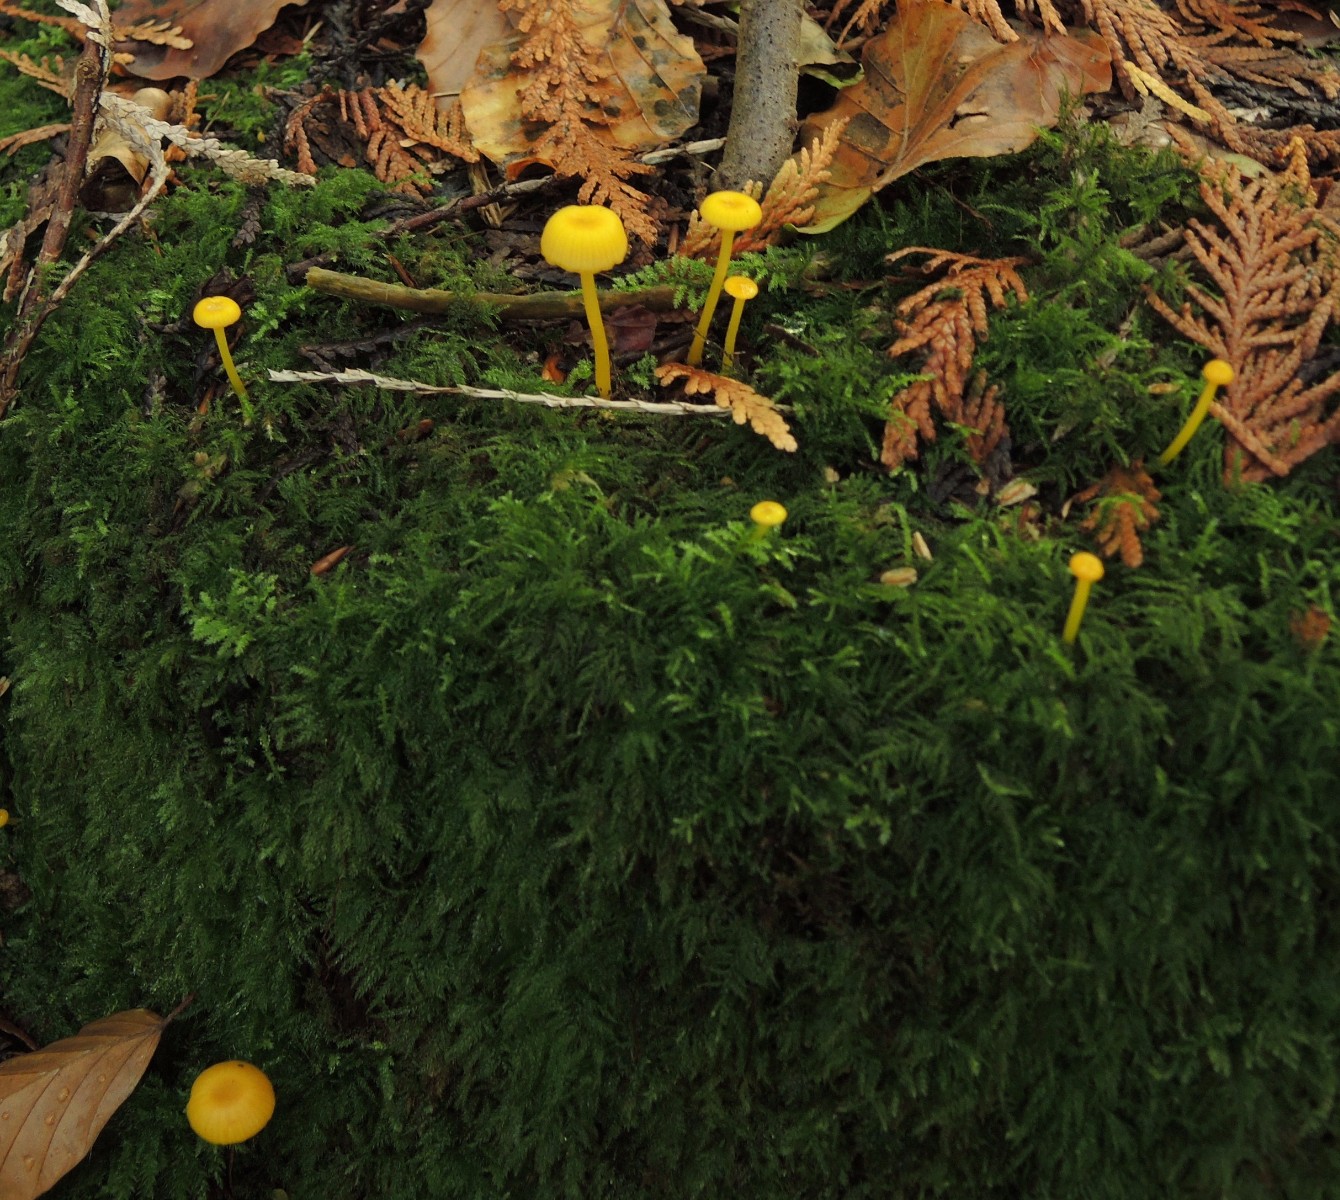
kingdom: Fungi
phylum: Basidiomycota
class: Agaricomycetes
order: Agaricales
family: Hygrophoraceae
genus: Gloioxanthomyces
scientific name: Gloioxanthomyces vitellinus
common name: kromgul vokshat
